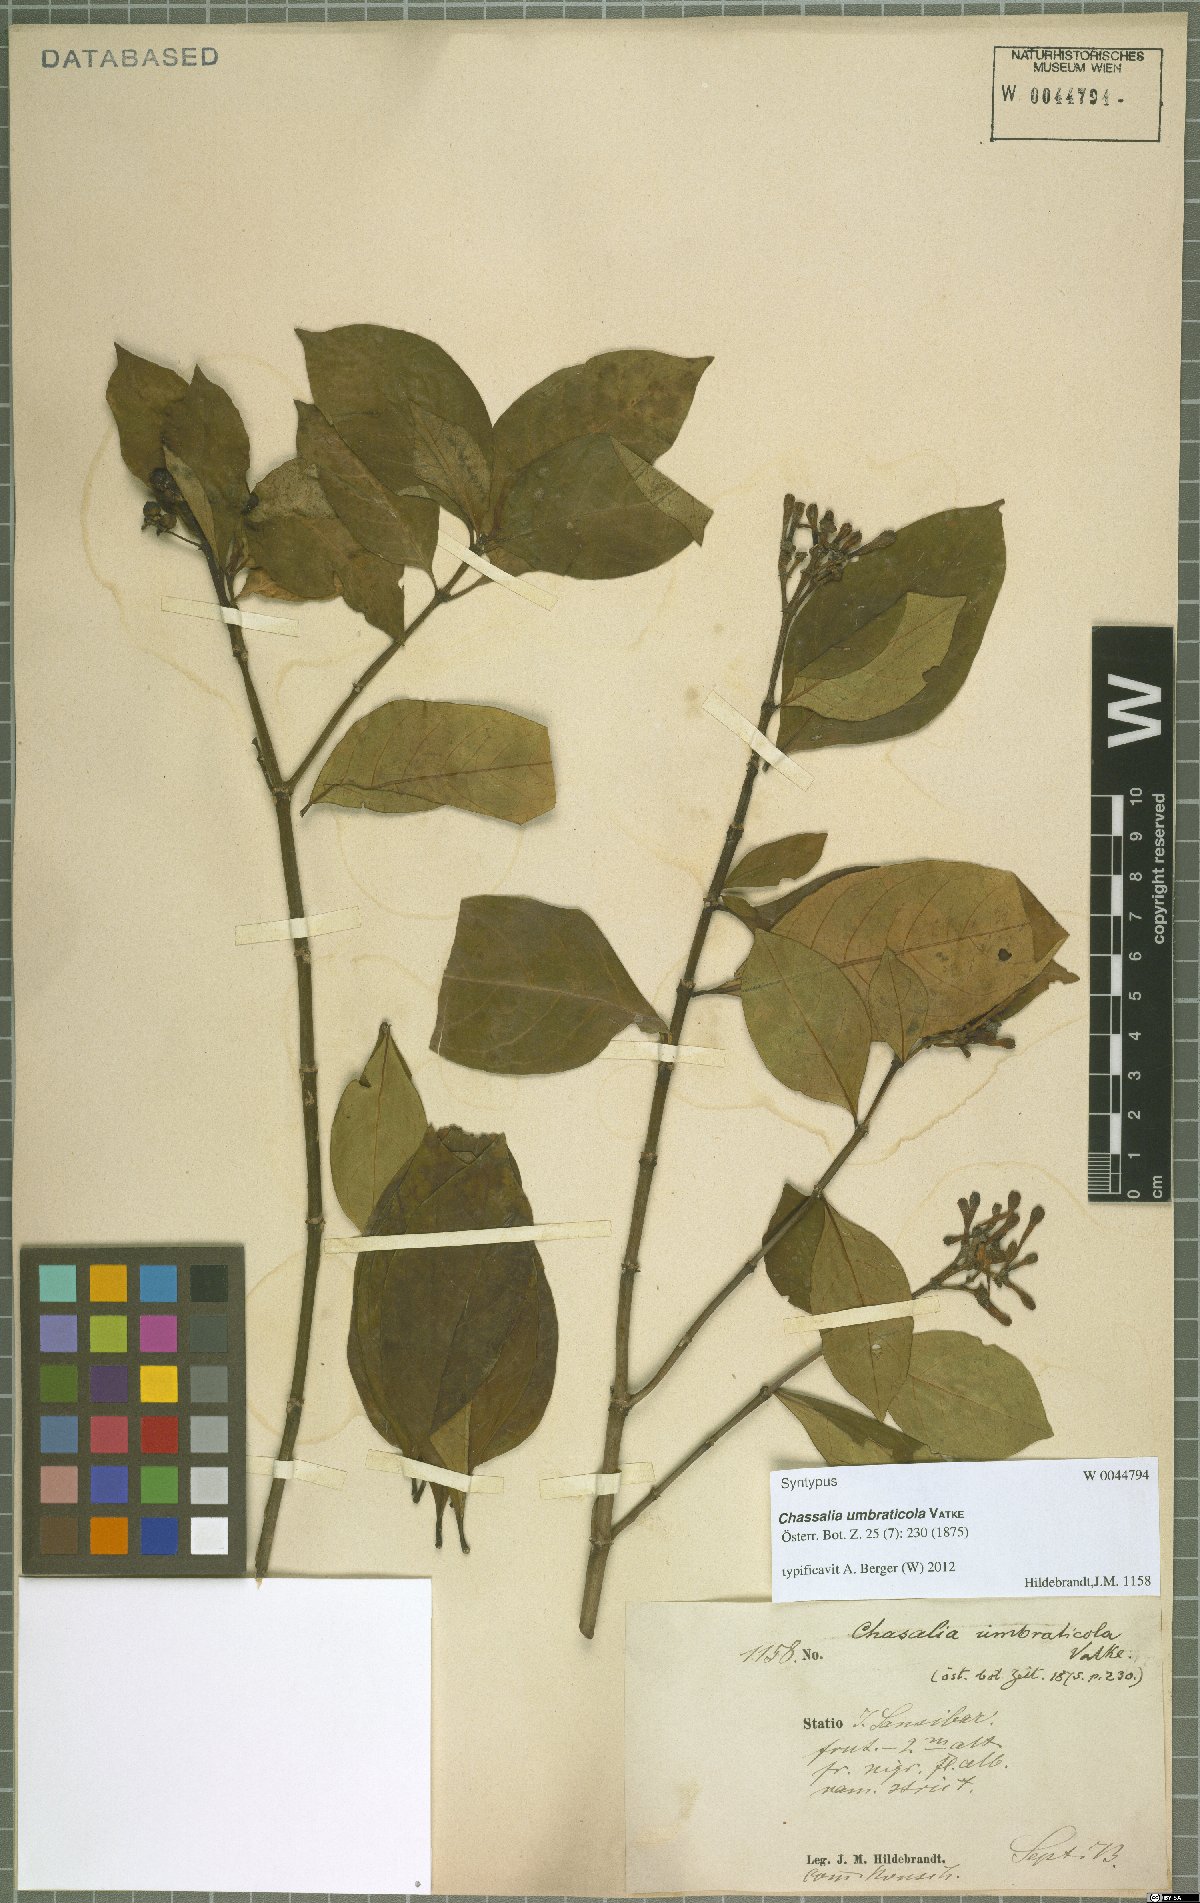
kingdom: Plantae
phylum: Tracheophyta
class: Magnoliopsida
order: Gentianales
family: Rubiaceae
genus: Chassalia
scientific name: Chassalia umbraticola
